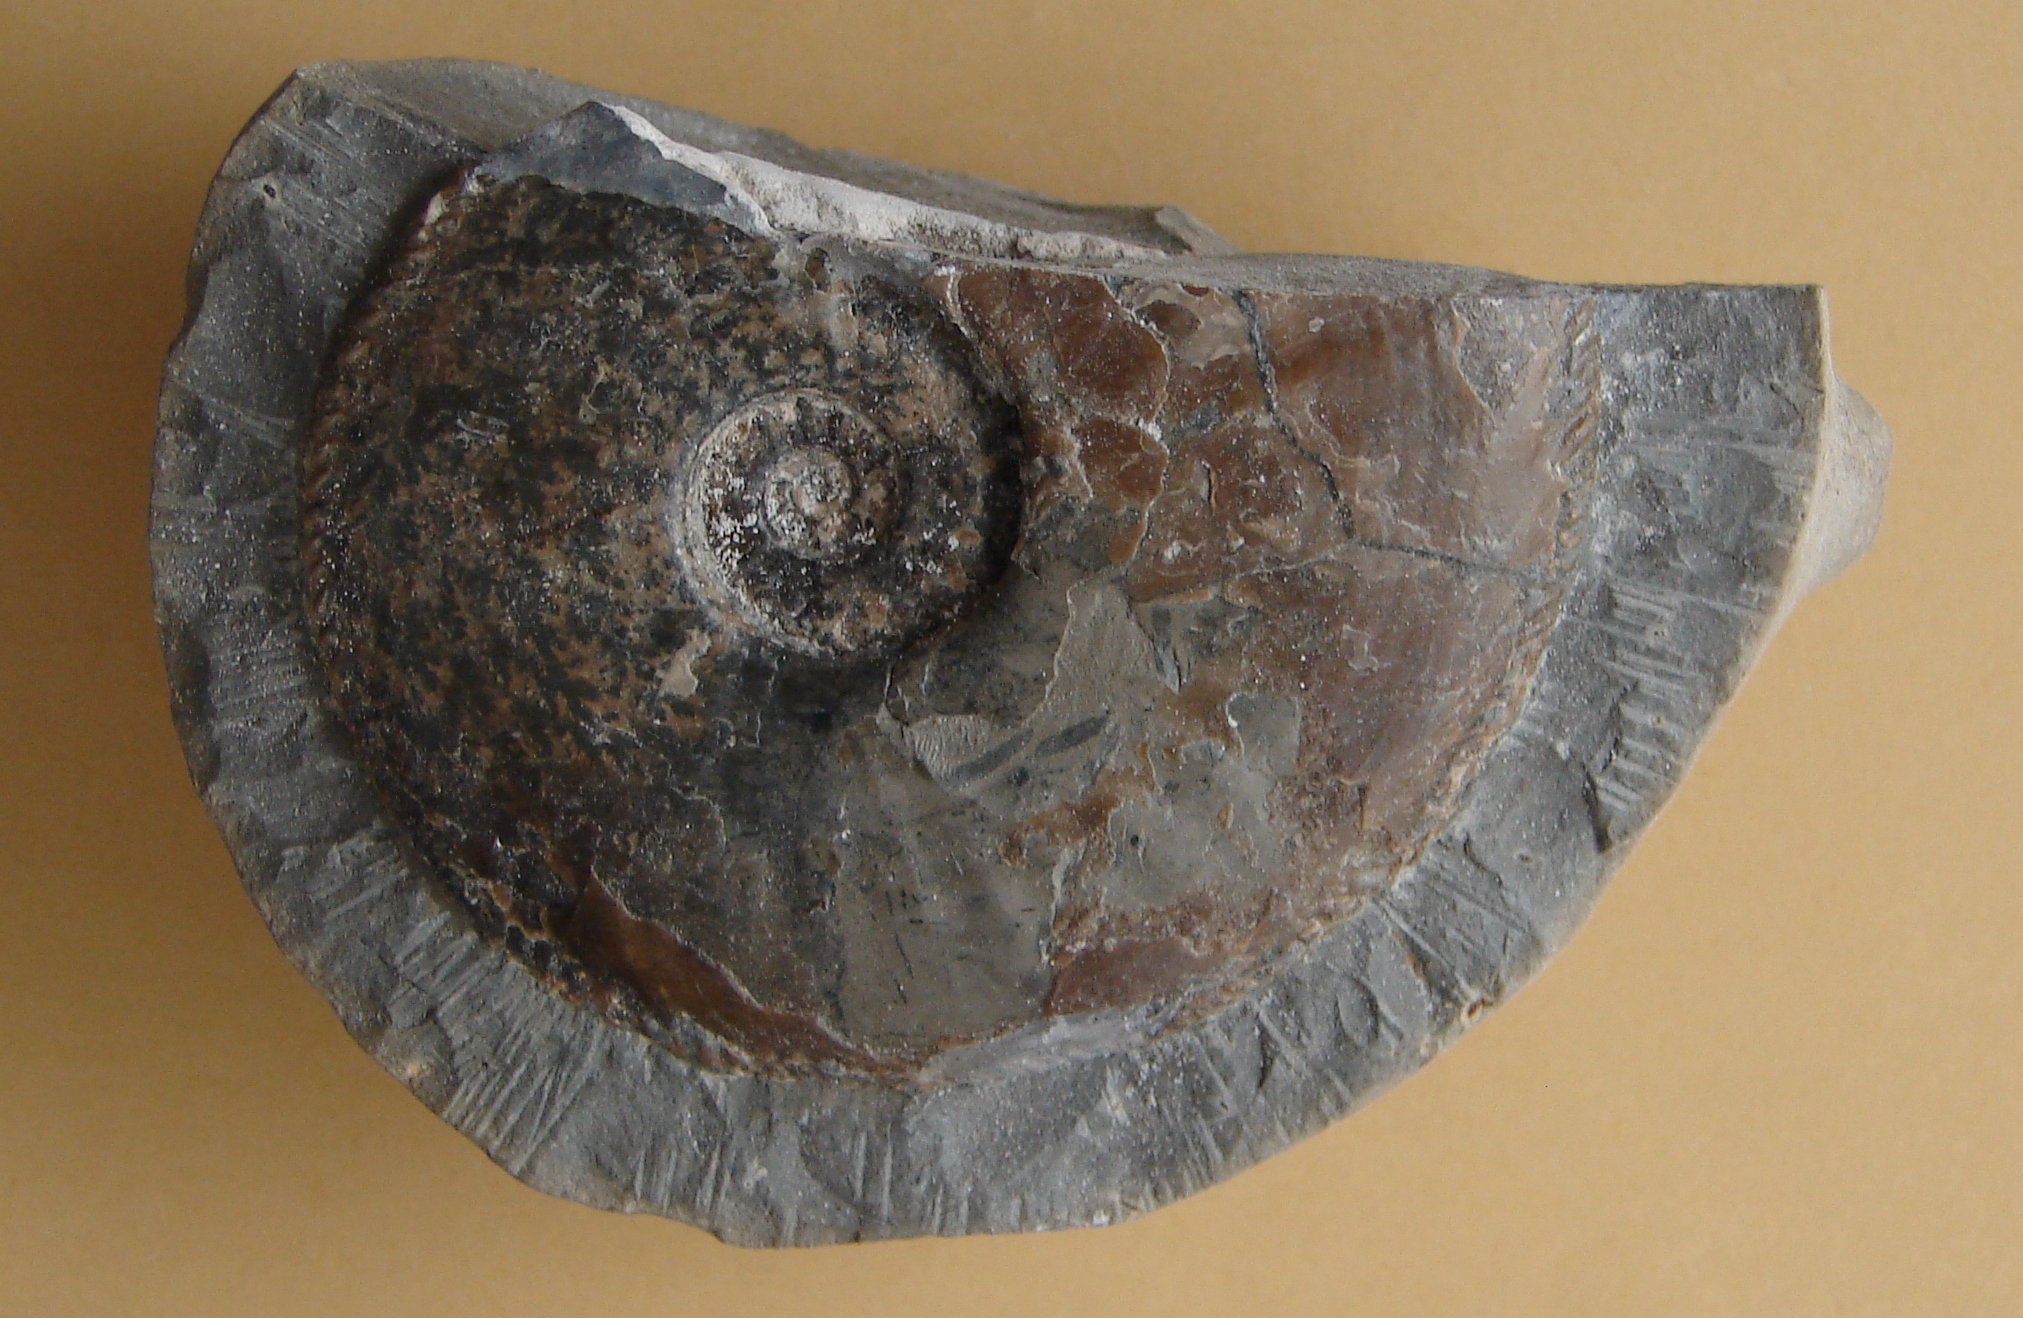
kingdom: Animalia
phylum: Mollusca
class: Cephalopoda
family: Amaltheidae
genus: Amaltheus
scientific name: Amaltheus margaritatus
